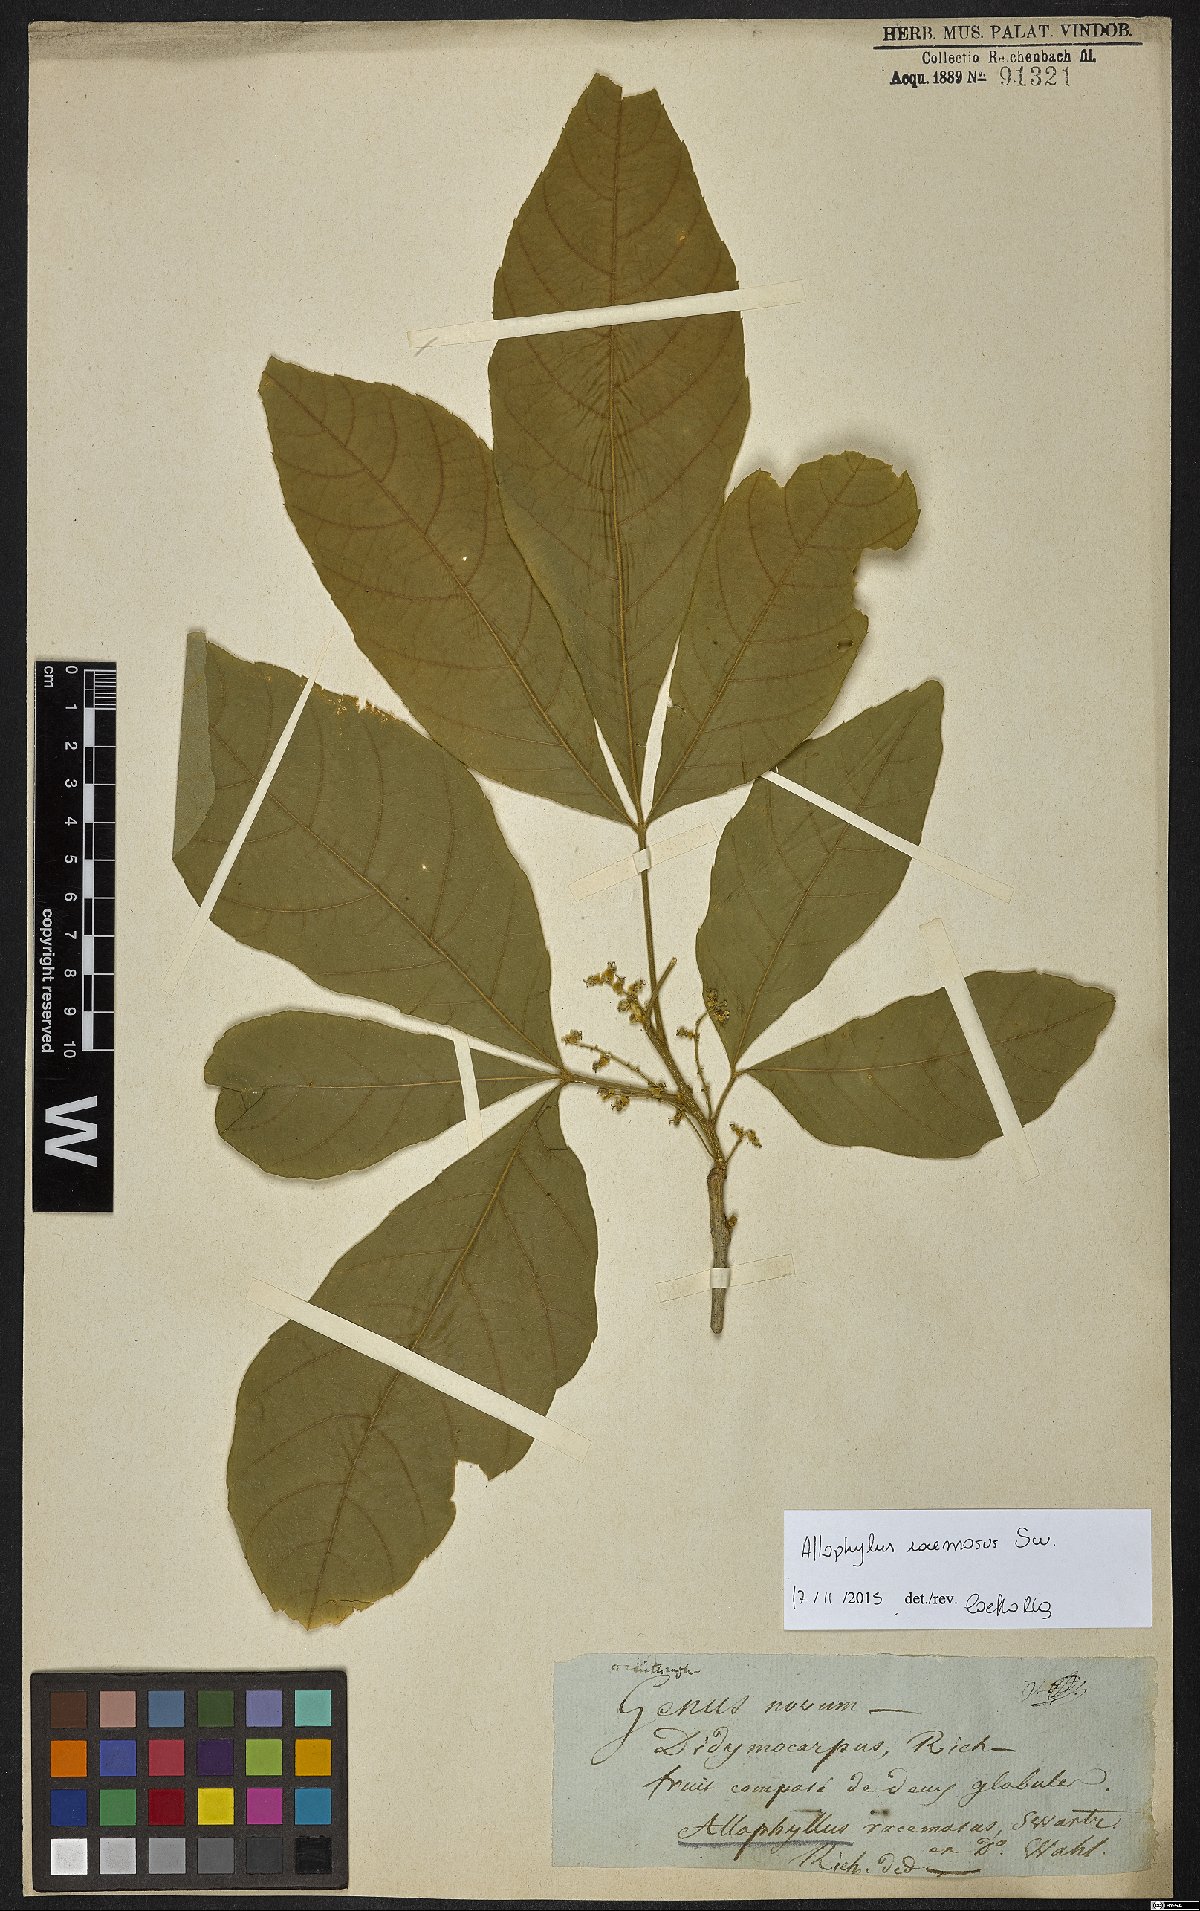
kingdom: Plantae
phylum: Tracheophyta
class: Magnoliopsida
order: Sapindales
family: Sapindaceae
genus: Allophylus
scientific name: Allophylus racemosus
